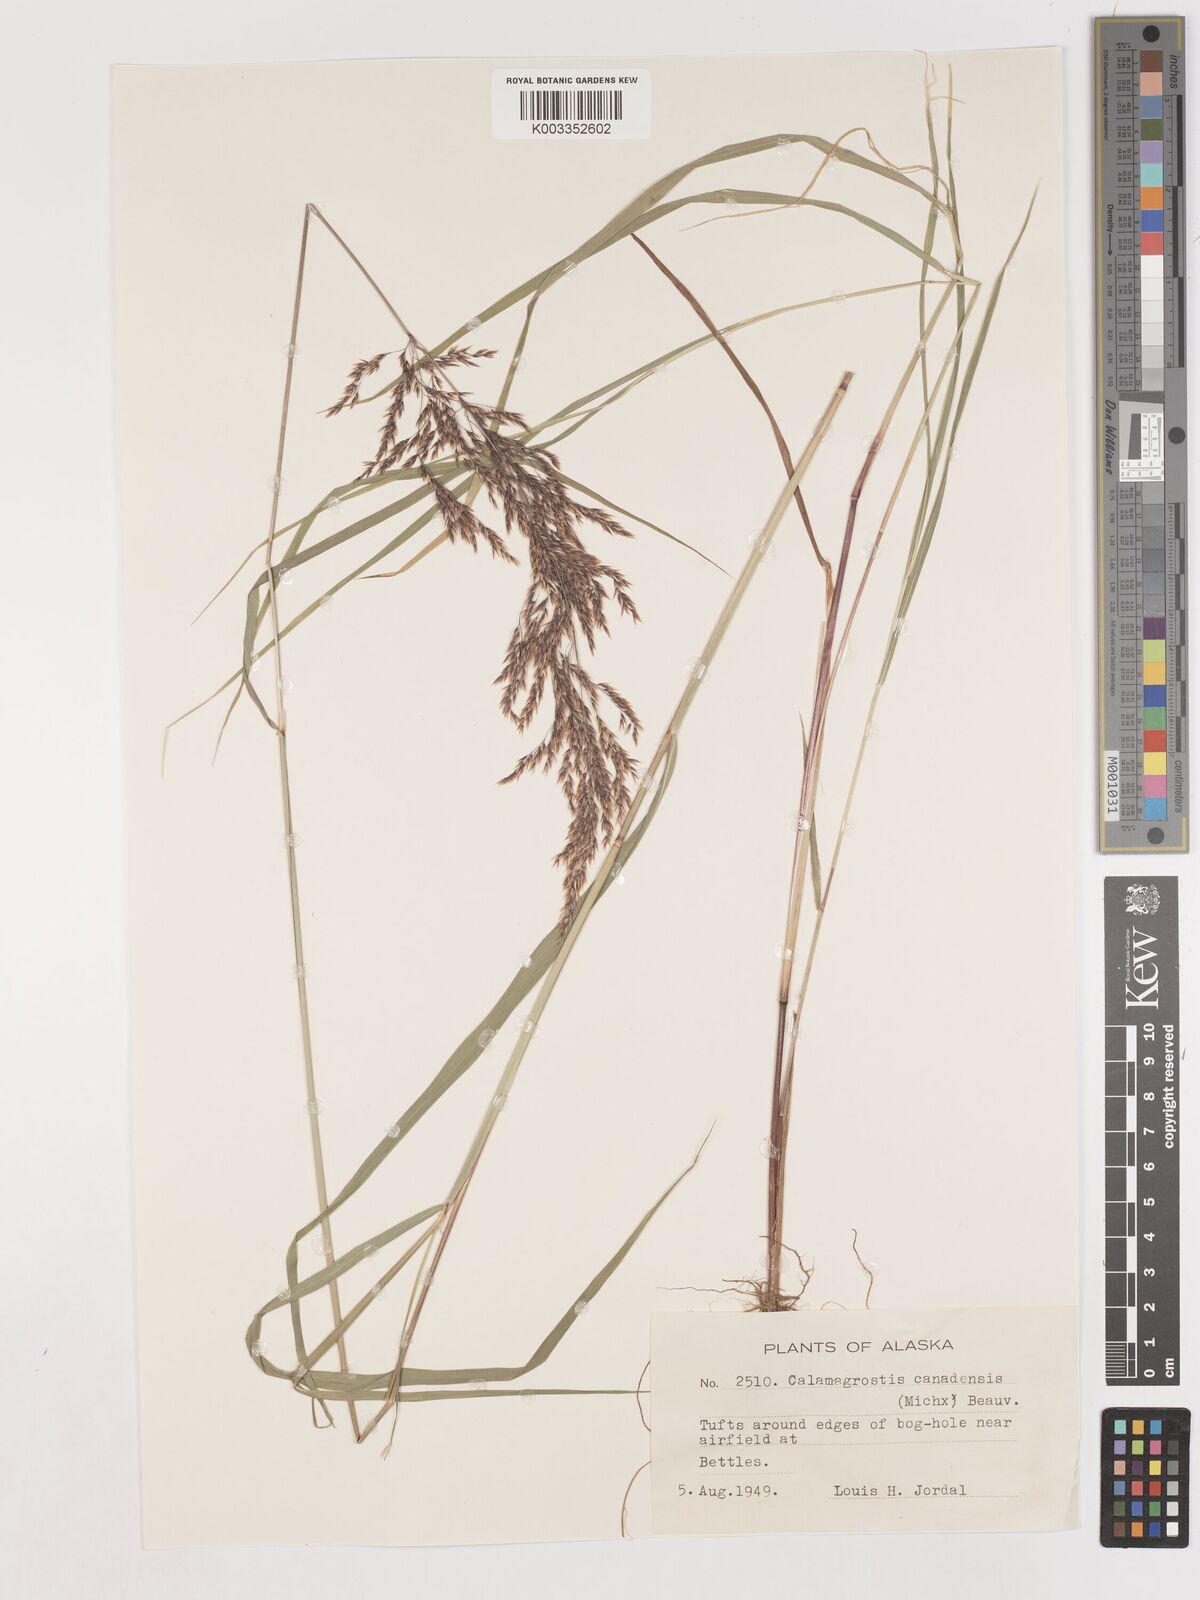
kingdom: Plantae
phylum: Tracheophyta
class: Liliopsida
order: Poales
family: Poaceae
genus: Calamagrostis
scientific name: Calamagrostis canadensis
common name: Canada bluejoint
